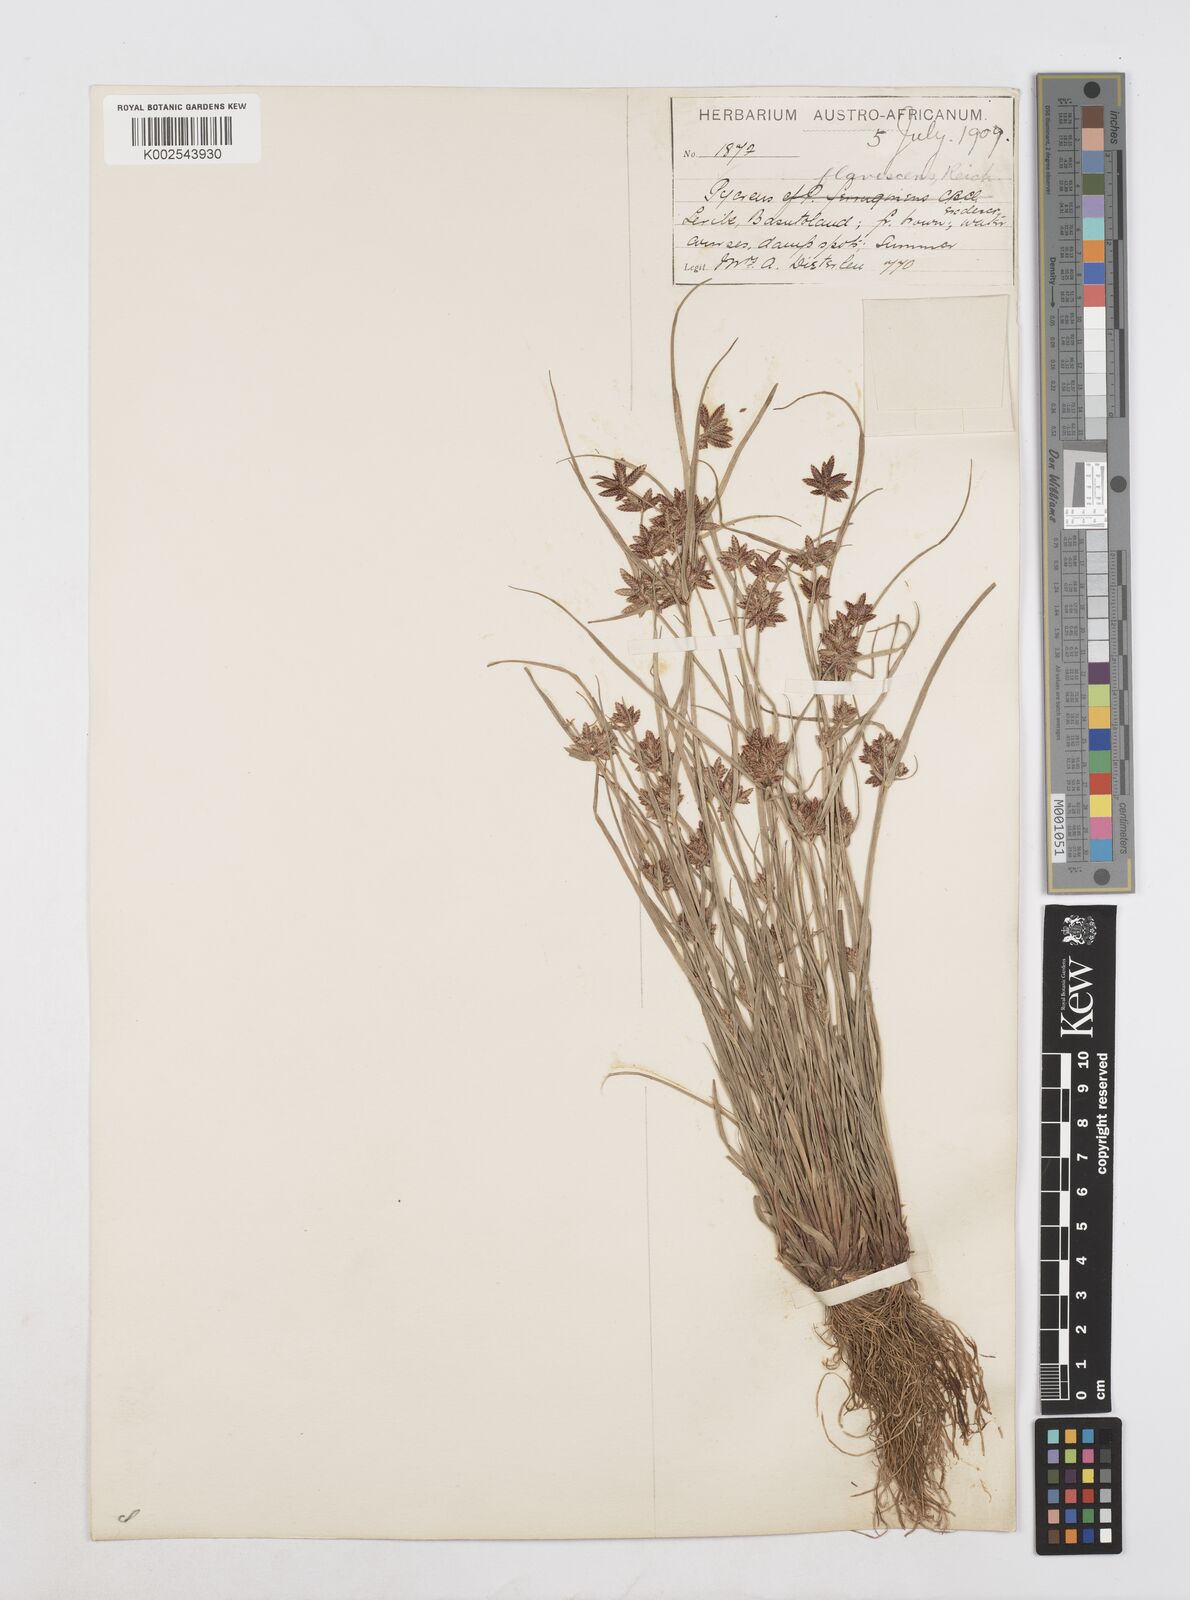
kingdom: Plantae
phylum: Tracheophyta
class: Liliopsida
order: Poales
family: Cyperaceae
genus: Cyperus
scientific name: Cyperus flavescens
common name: Yellow galingale
